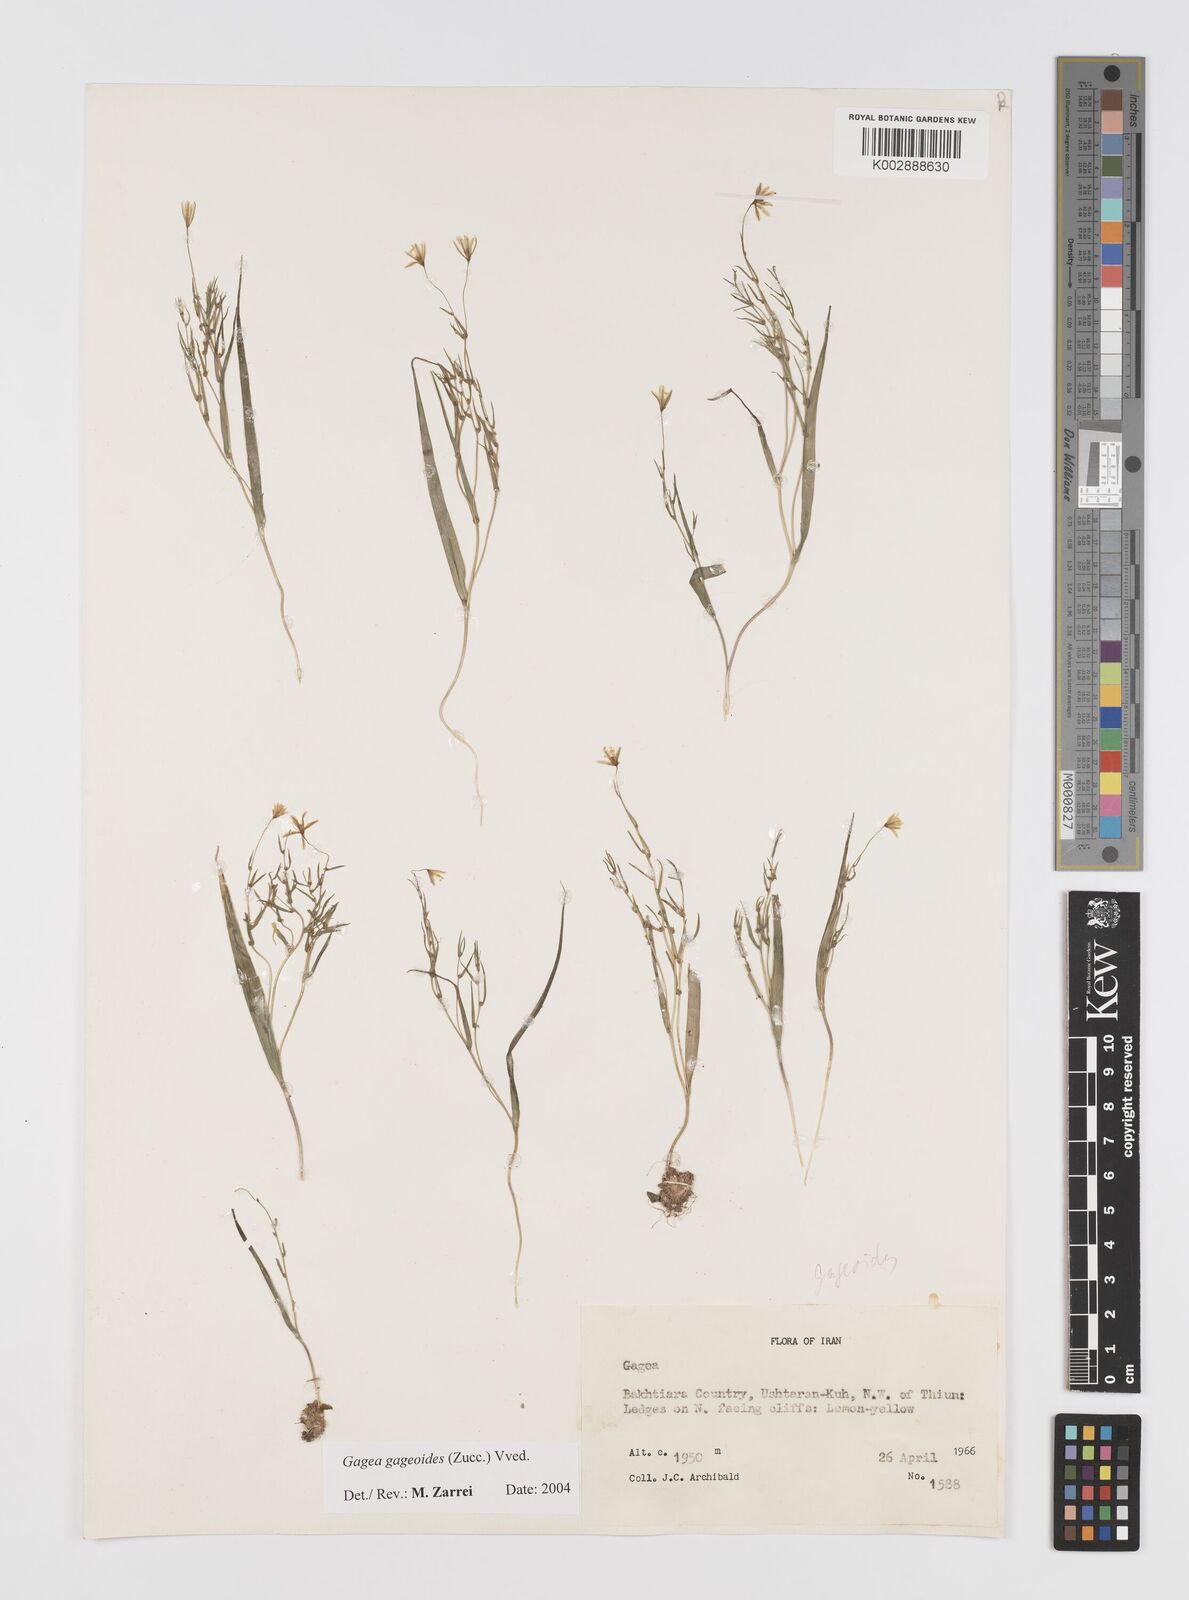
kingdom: Plantae
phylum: Tracheophyta
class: Liliopsida
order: Liliales
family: Liliaceae
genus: Gagea
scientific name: Gagea gageoides
